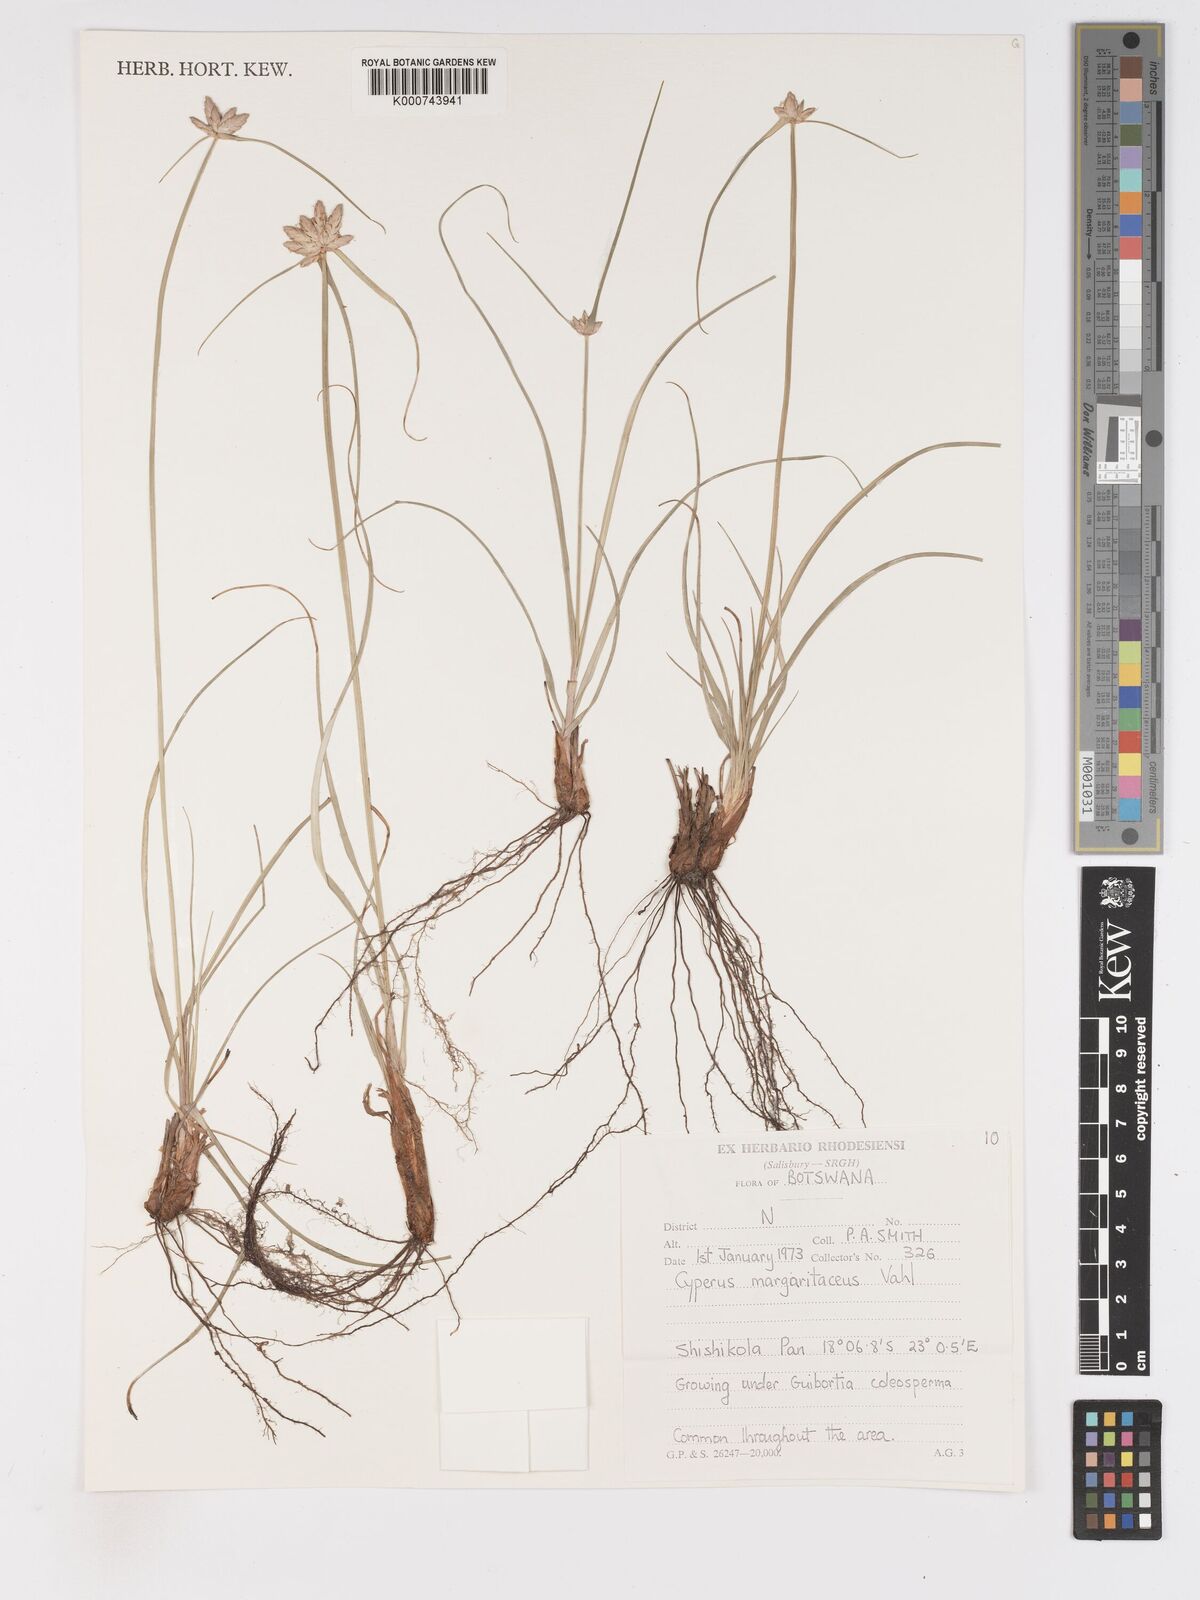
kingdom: Plantae
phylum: Tracheophyta
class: Liliopsida
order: Poales
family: Cyperaceae
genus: Cyperus
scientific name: Cyperus margaritaceus
